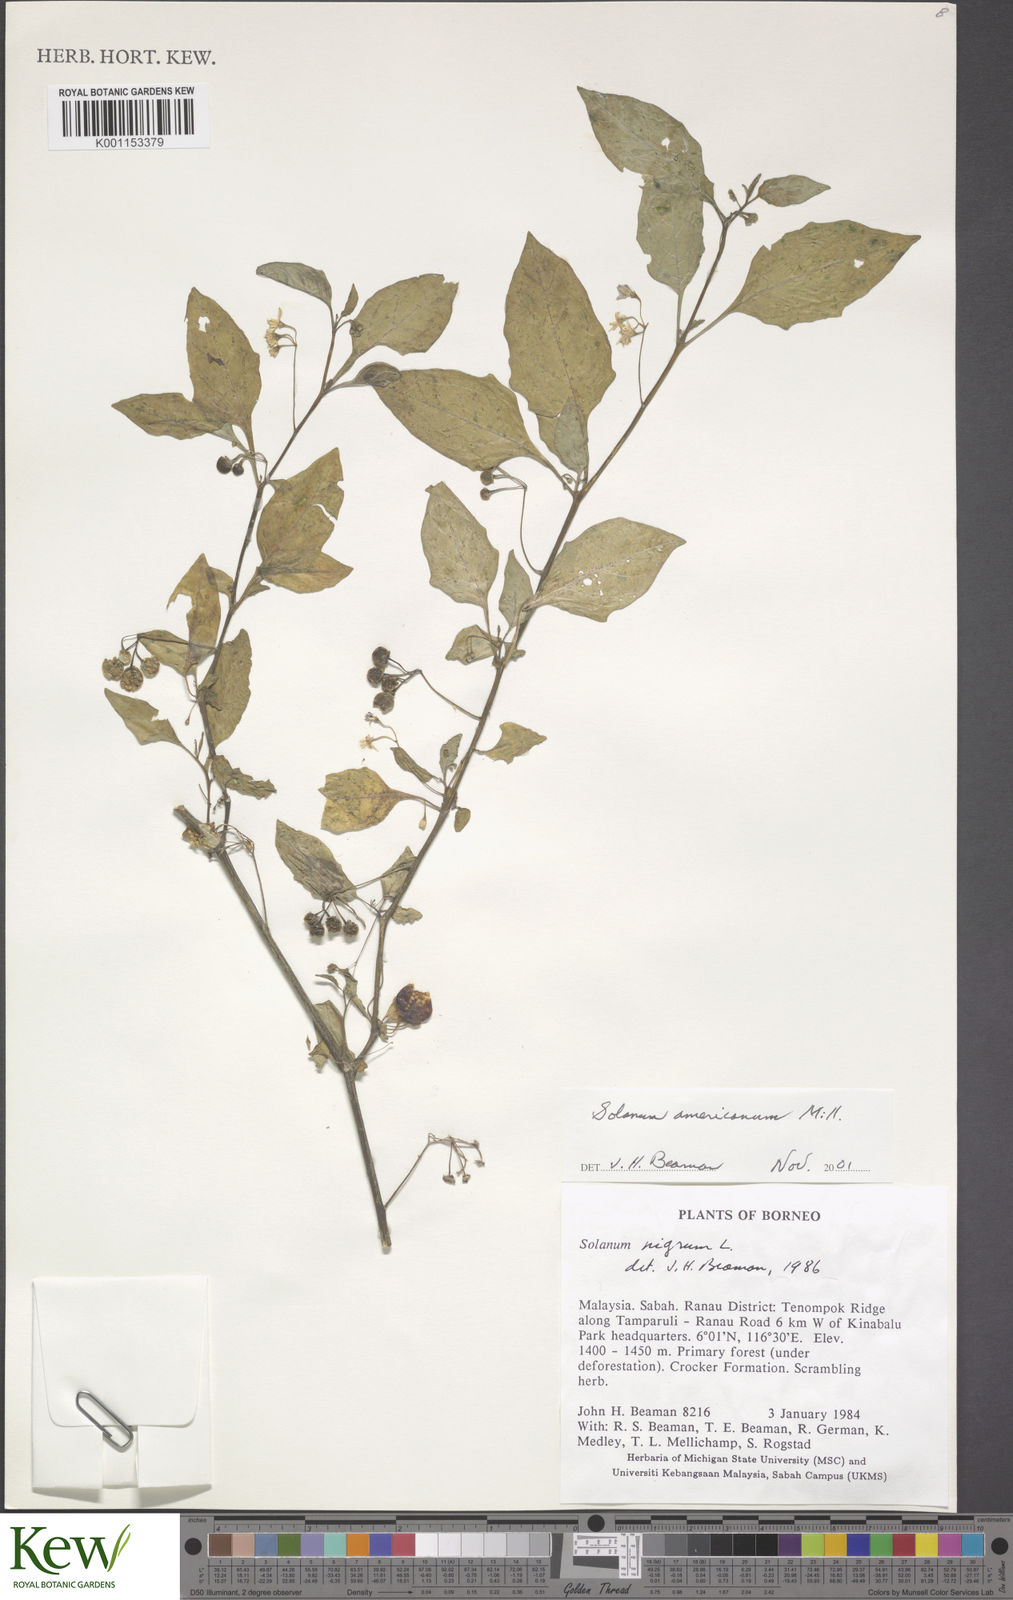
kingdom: Plantae
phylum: Tracheophyta
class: Magnoliopsida
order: Solanales
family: Solanaceae
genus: Solanum
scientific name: Solanum americanum
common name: American black nightshade
